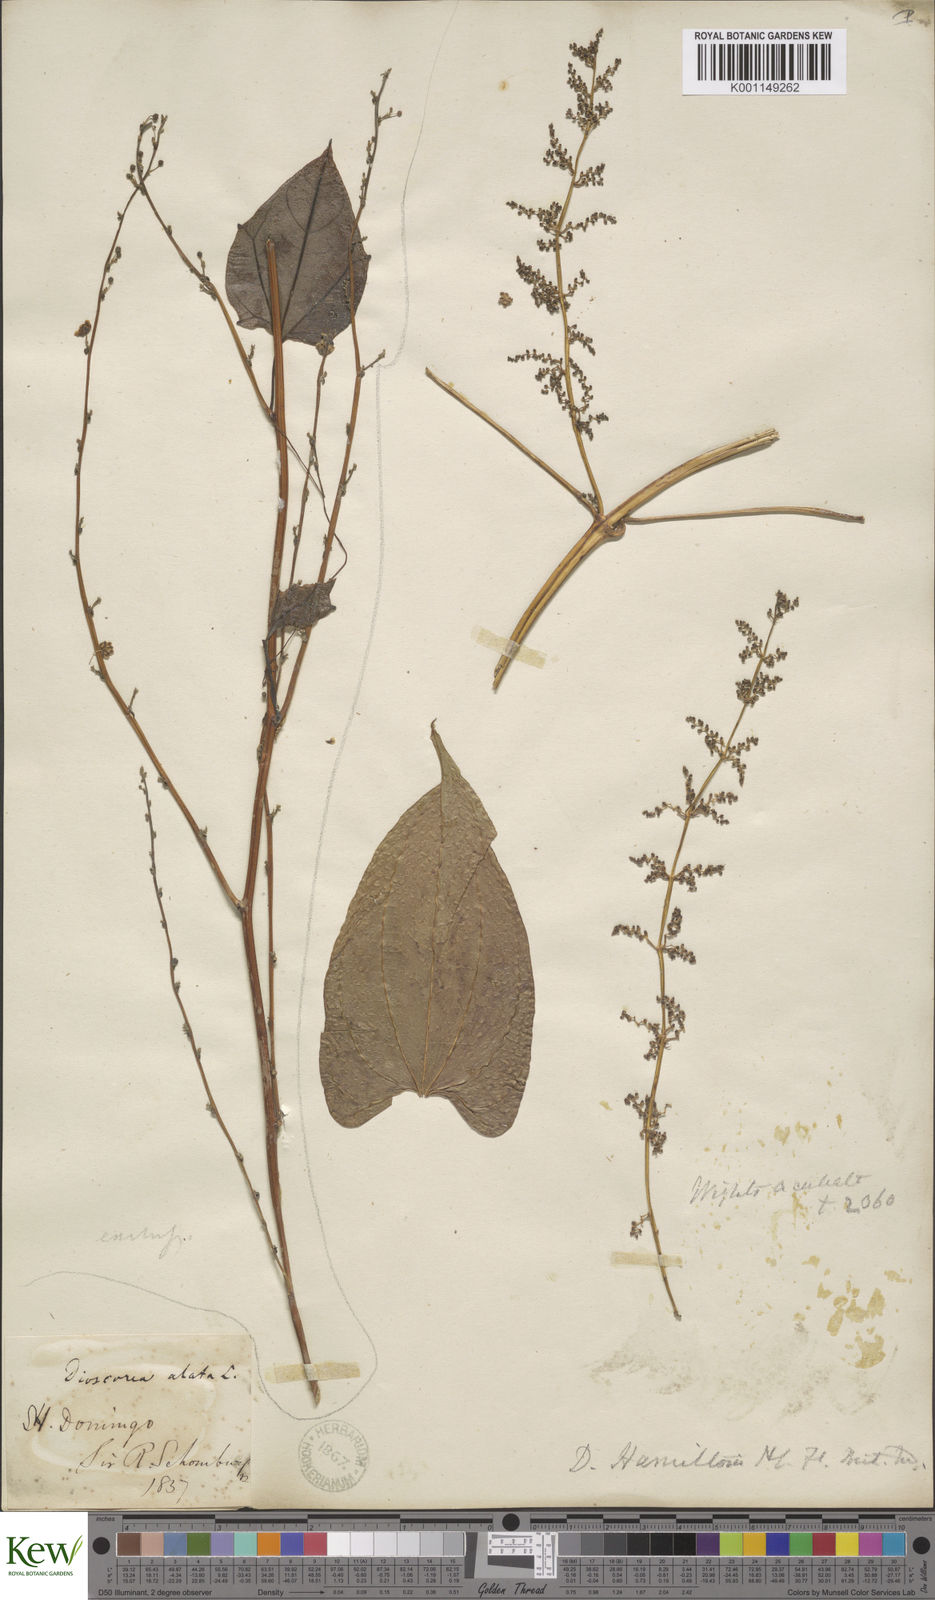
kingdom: Plantae
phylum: Tracheophyta
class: Liliopsida
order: Dioscoreales
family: Dioscoreaceae
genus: Dioscorea
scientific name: Dioscorea alata
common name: Water yam
